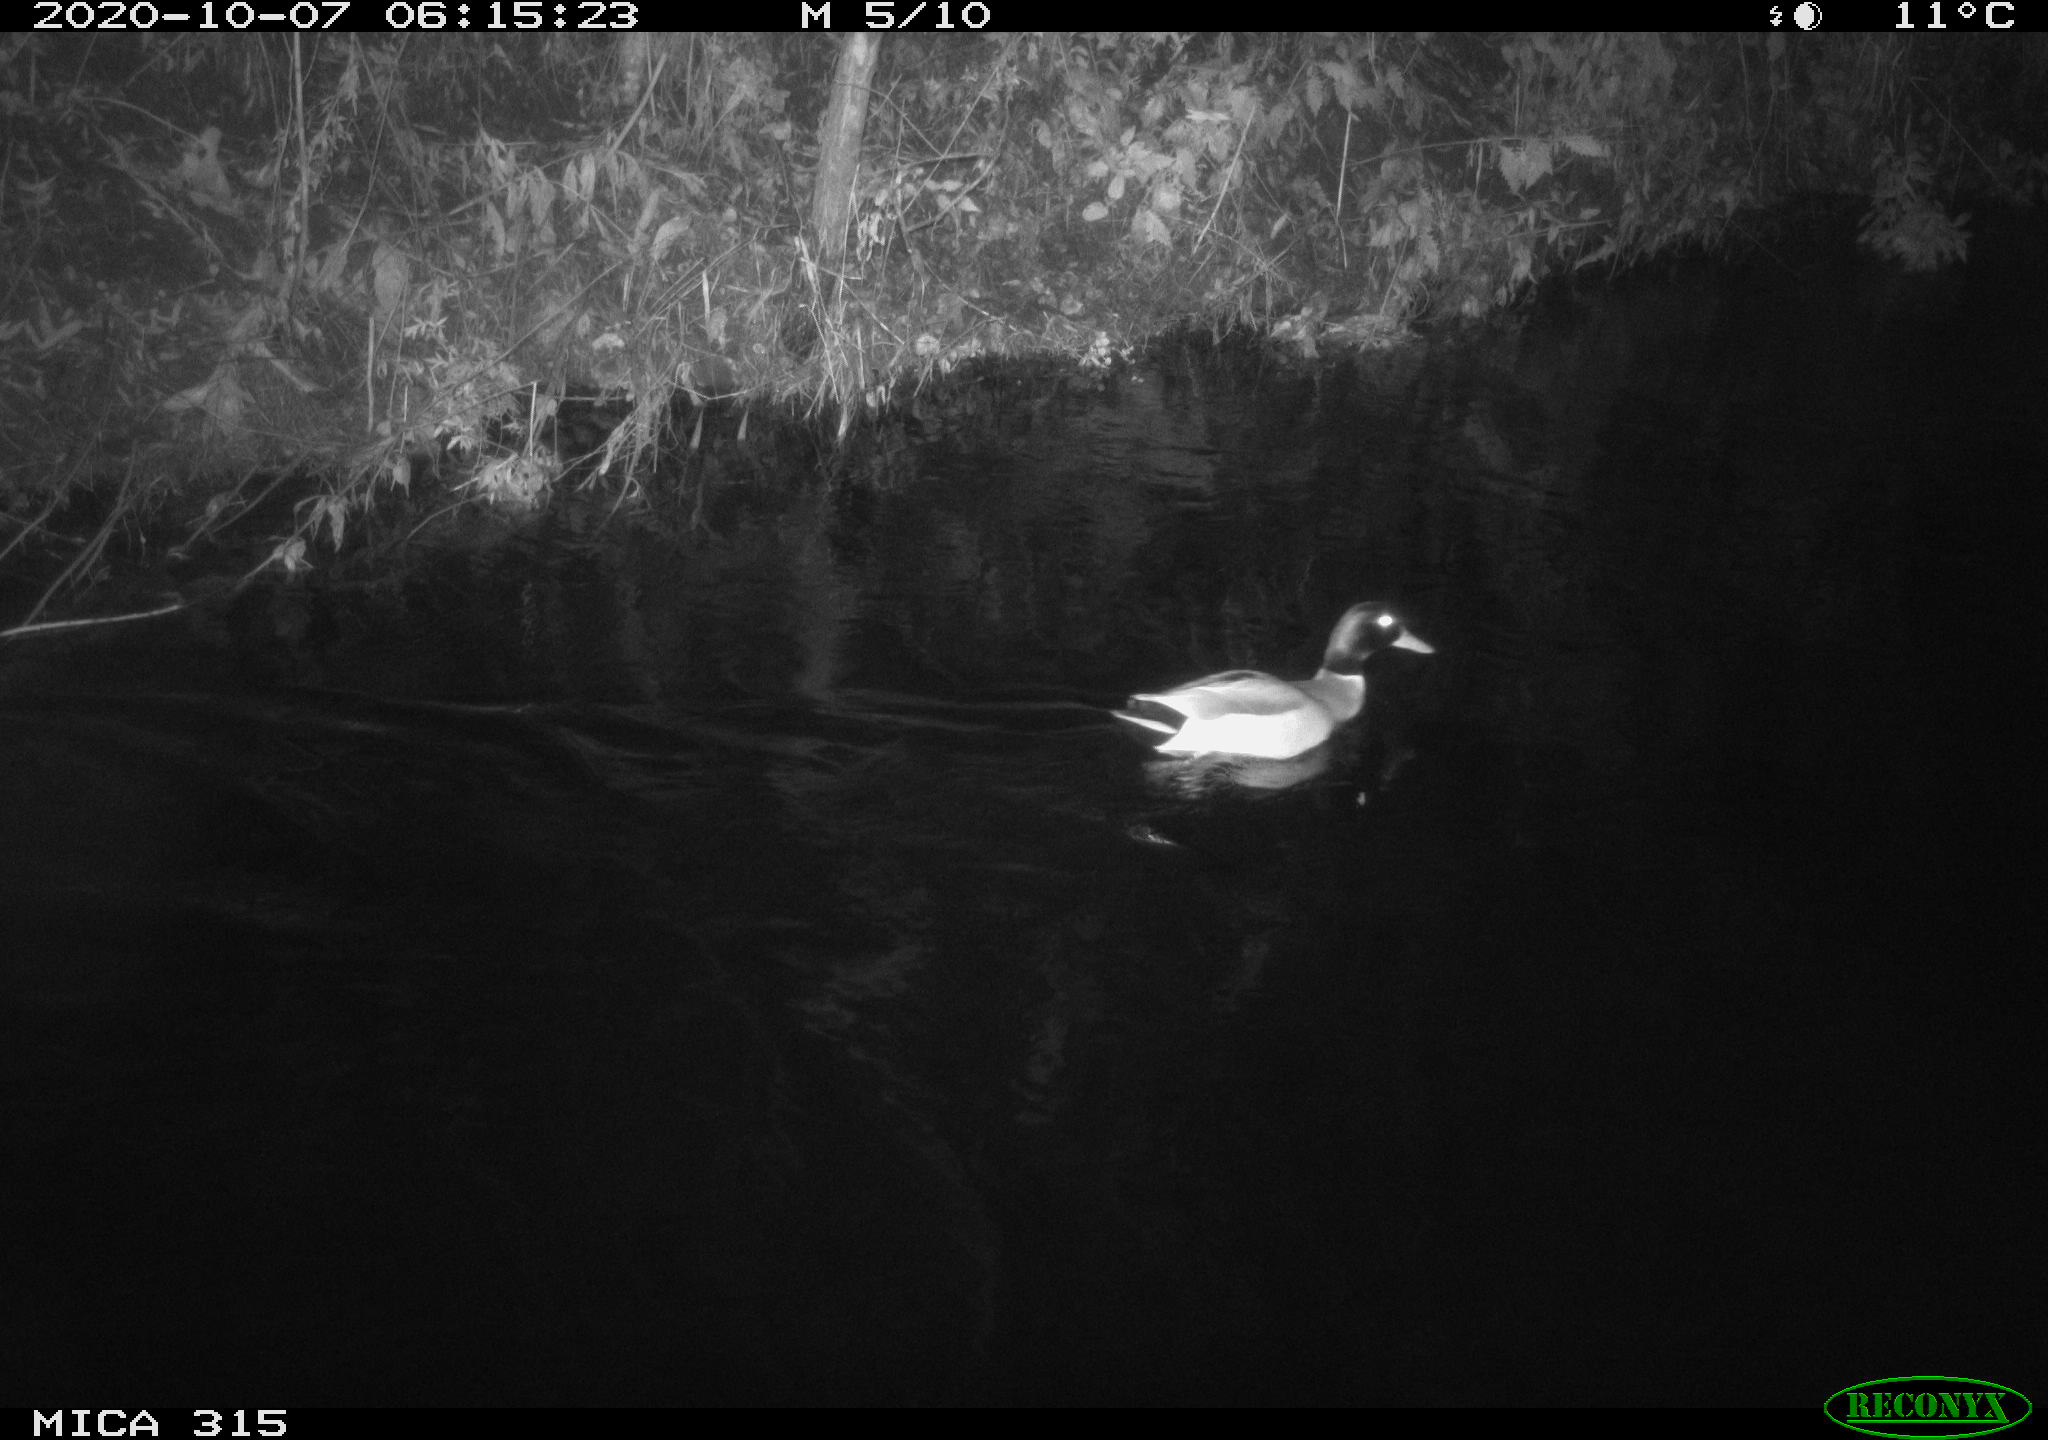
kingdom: Animalia
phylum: Chordata
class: Aves
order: Anseriformes
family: Anatidae
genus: Anas
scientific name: Anas platyrhynchos
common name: Mallard
